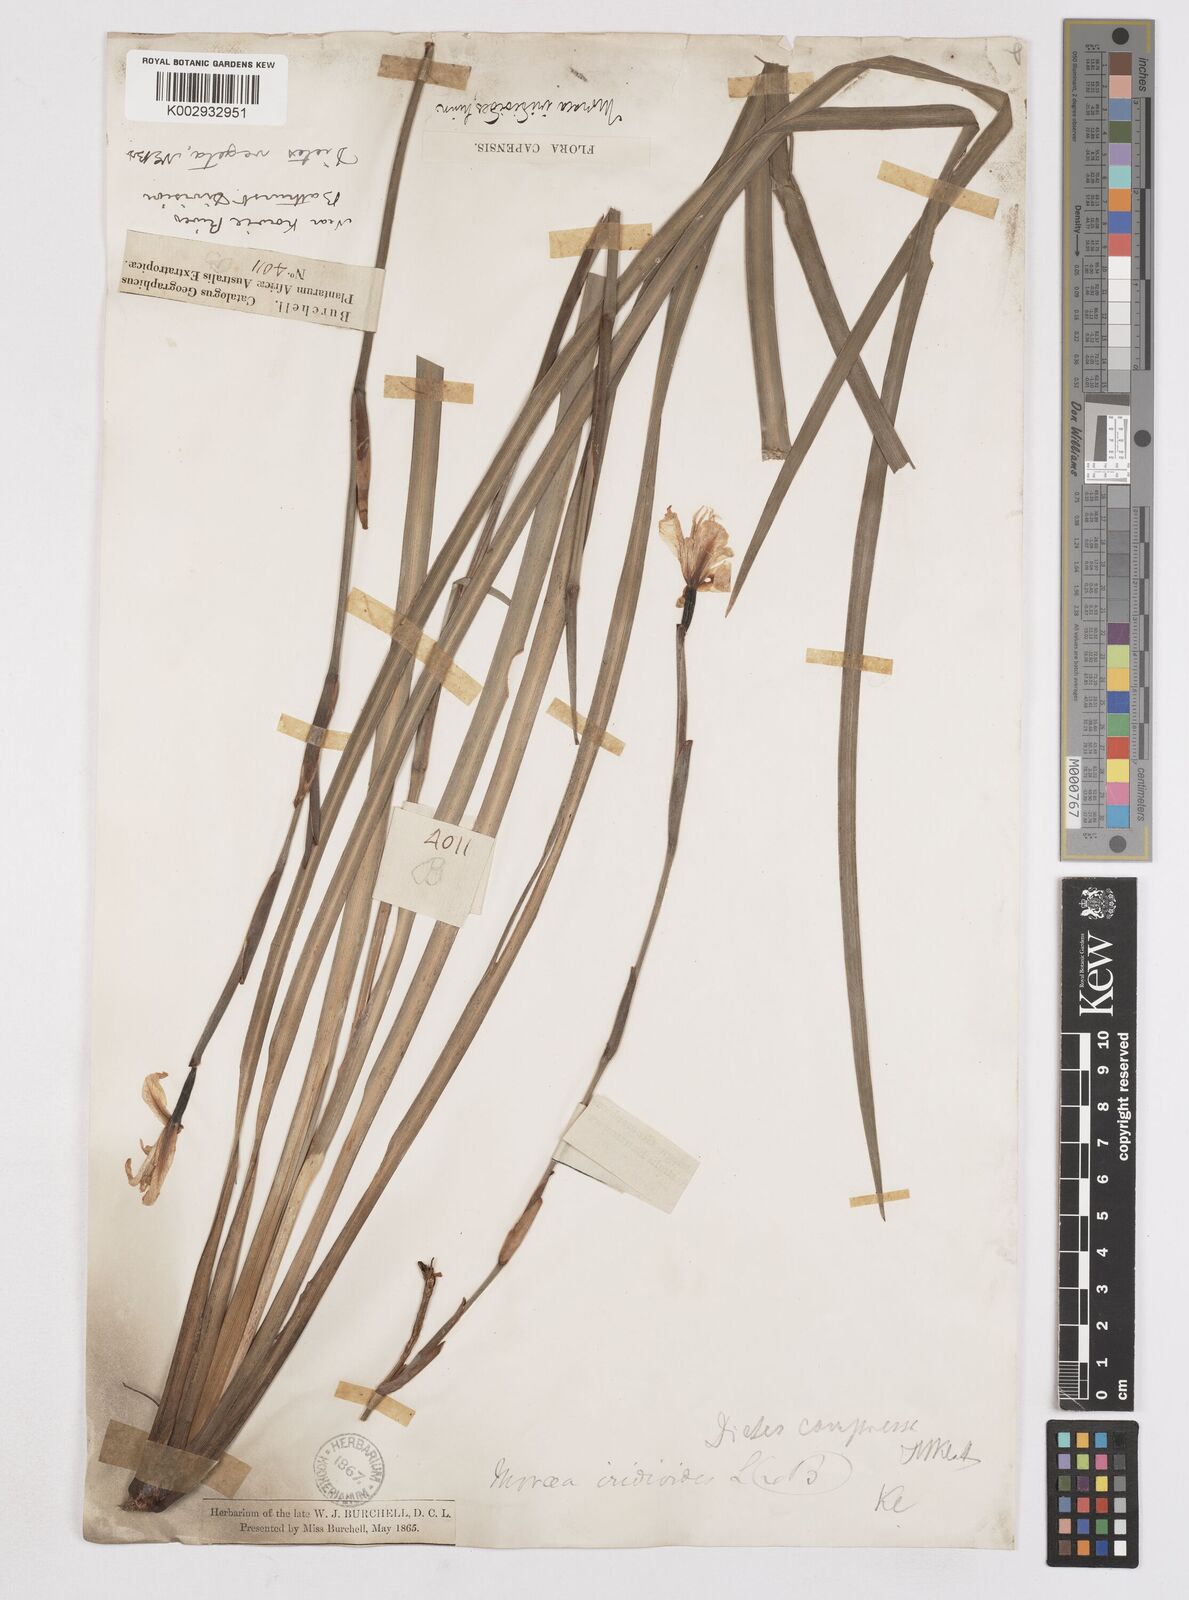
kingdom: Plantae
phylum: Tracheophyta
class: Liliopsida
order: Asparagales
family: Iridaceae
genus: Dietes
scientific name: Dietes iridioides
